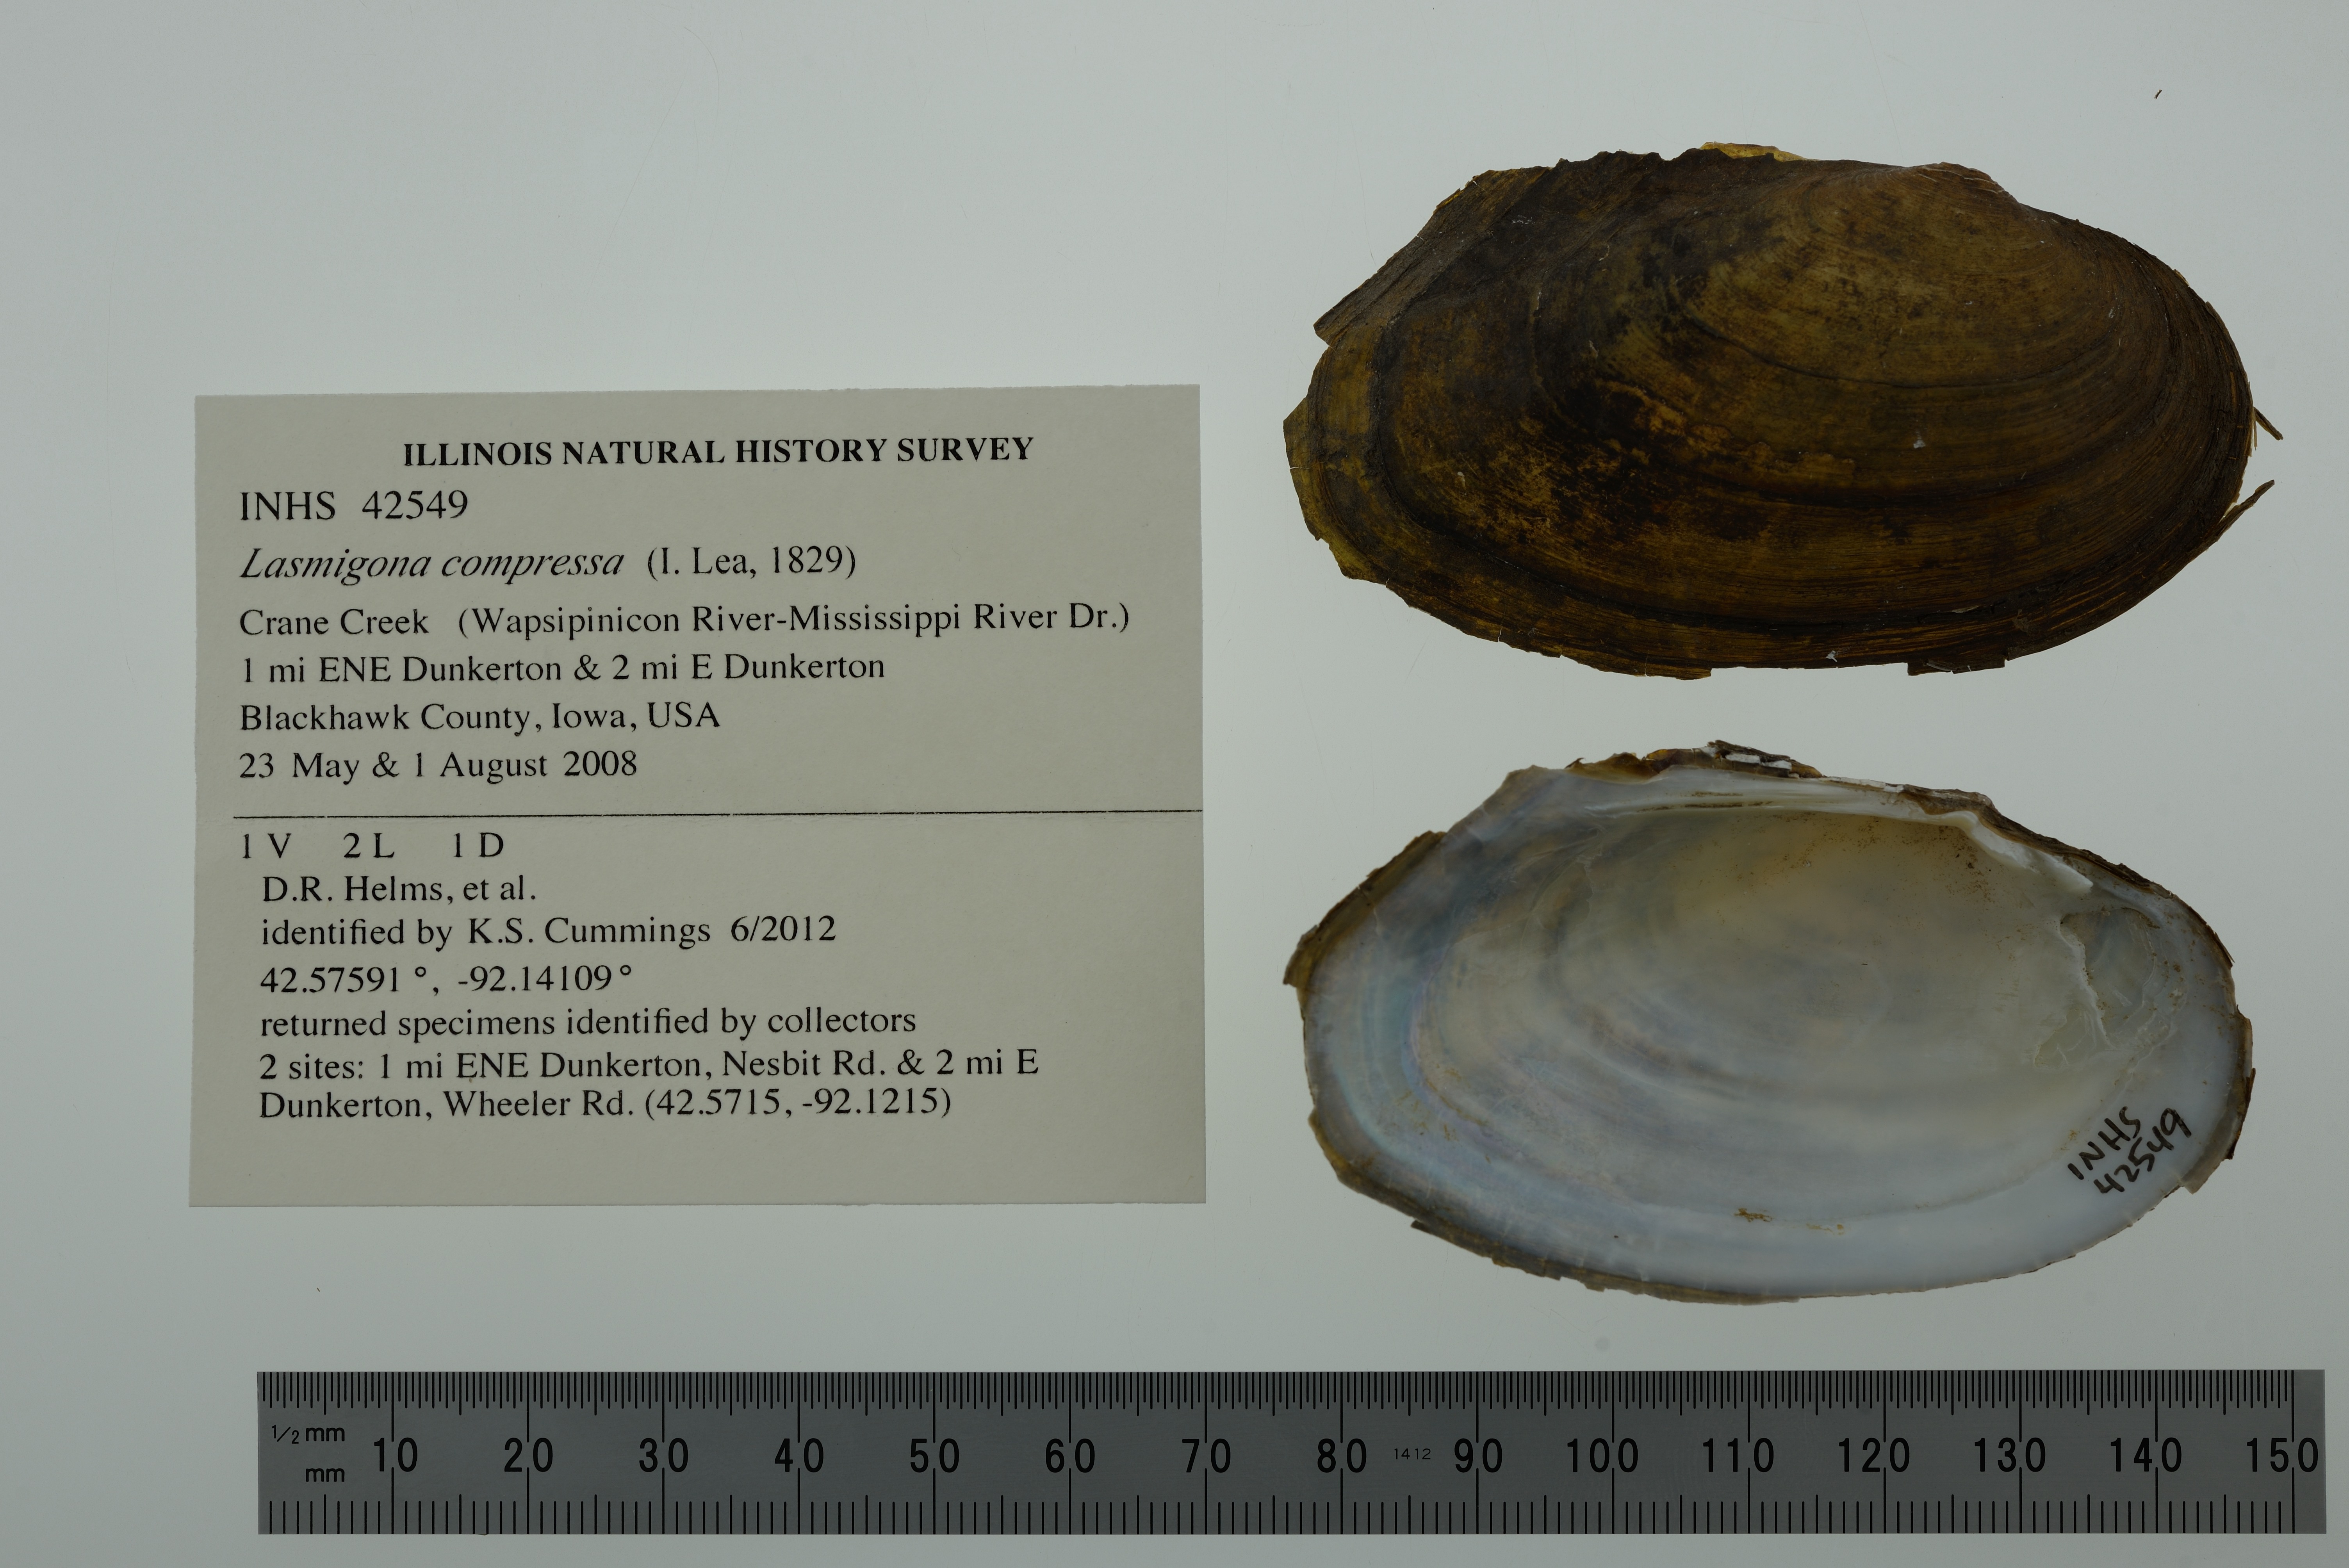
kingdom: Animalia
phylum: Mollusca
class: Bivalvia
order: Unionida
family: Unionidae
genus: Lasmigona
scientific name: Lasmigona compressa
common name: Creek heelsplitter
